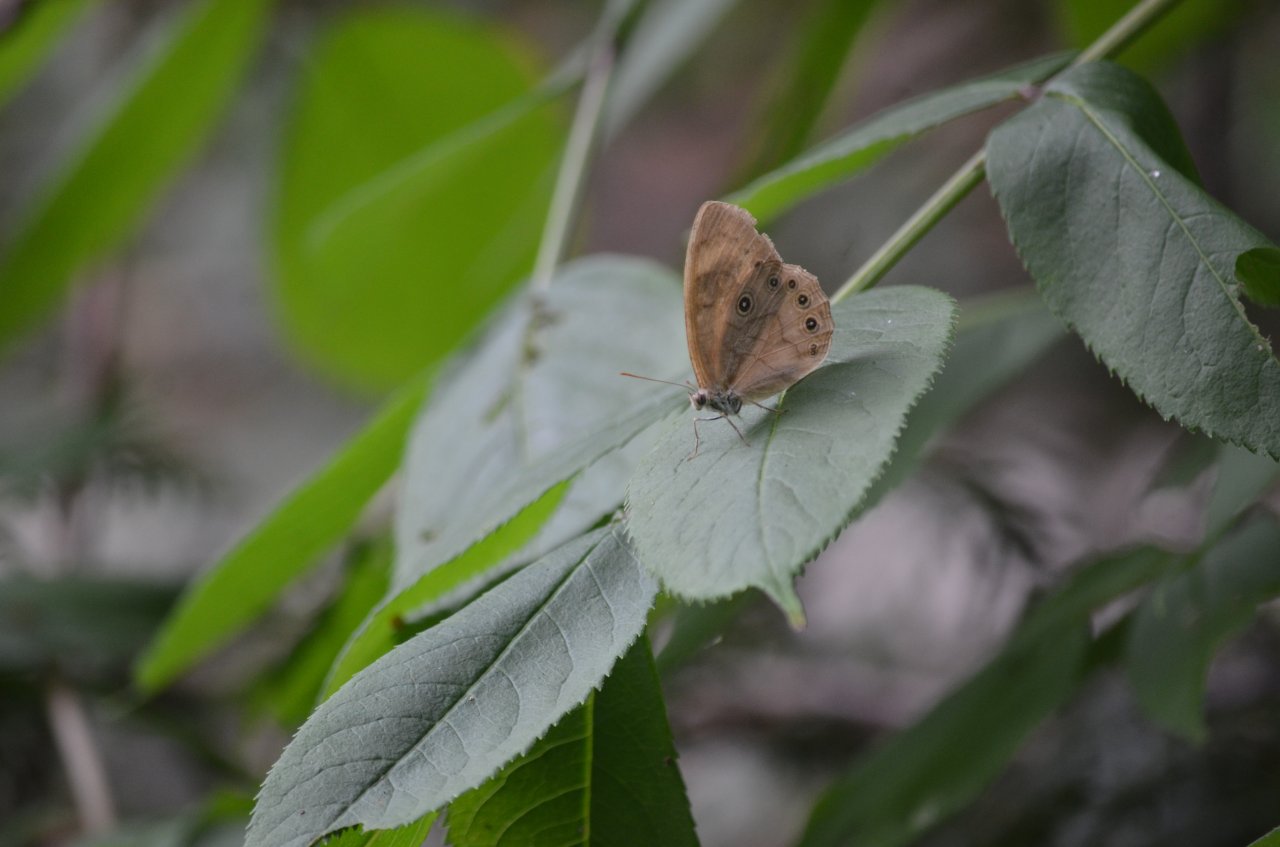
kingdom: Animalia
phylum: Arthropoda
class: Insecta
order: Lepidoptera
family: Nymphalidae
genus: Lethe
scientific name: Lethe eurydice
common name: Appalachian Eyed Brown
